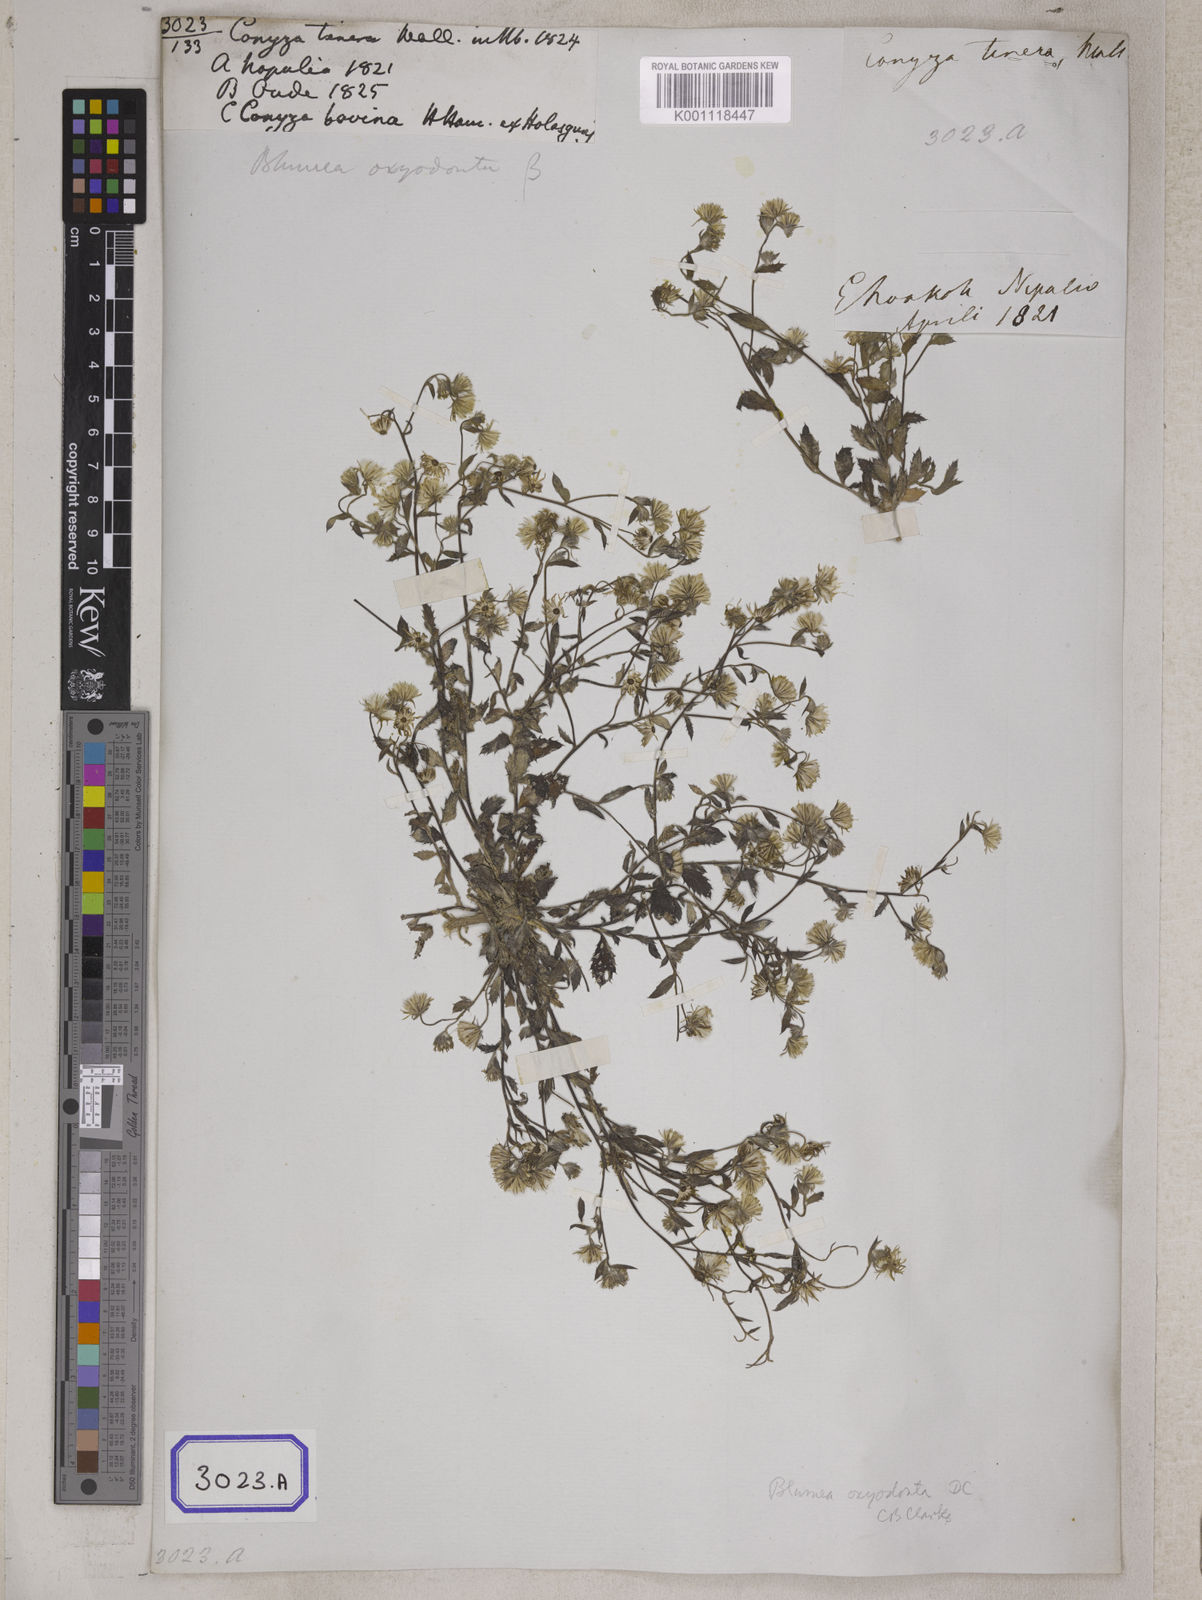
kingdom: Plantae
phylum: Tracheophyta
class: Magnoliopsida
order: Asterales
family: Asteraceae
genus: Blumea
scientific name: Blumea oxyodonta
